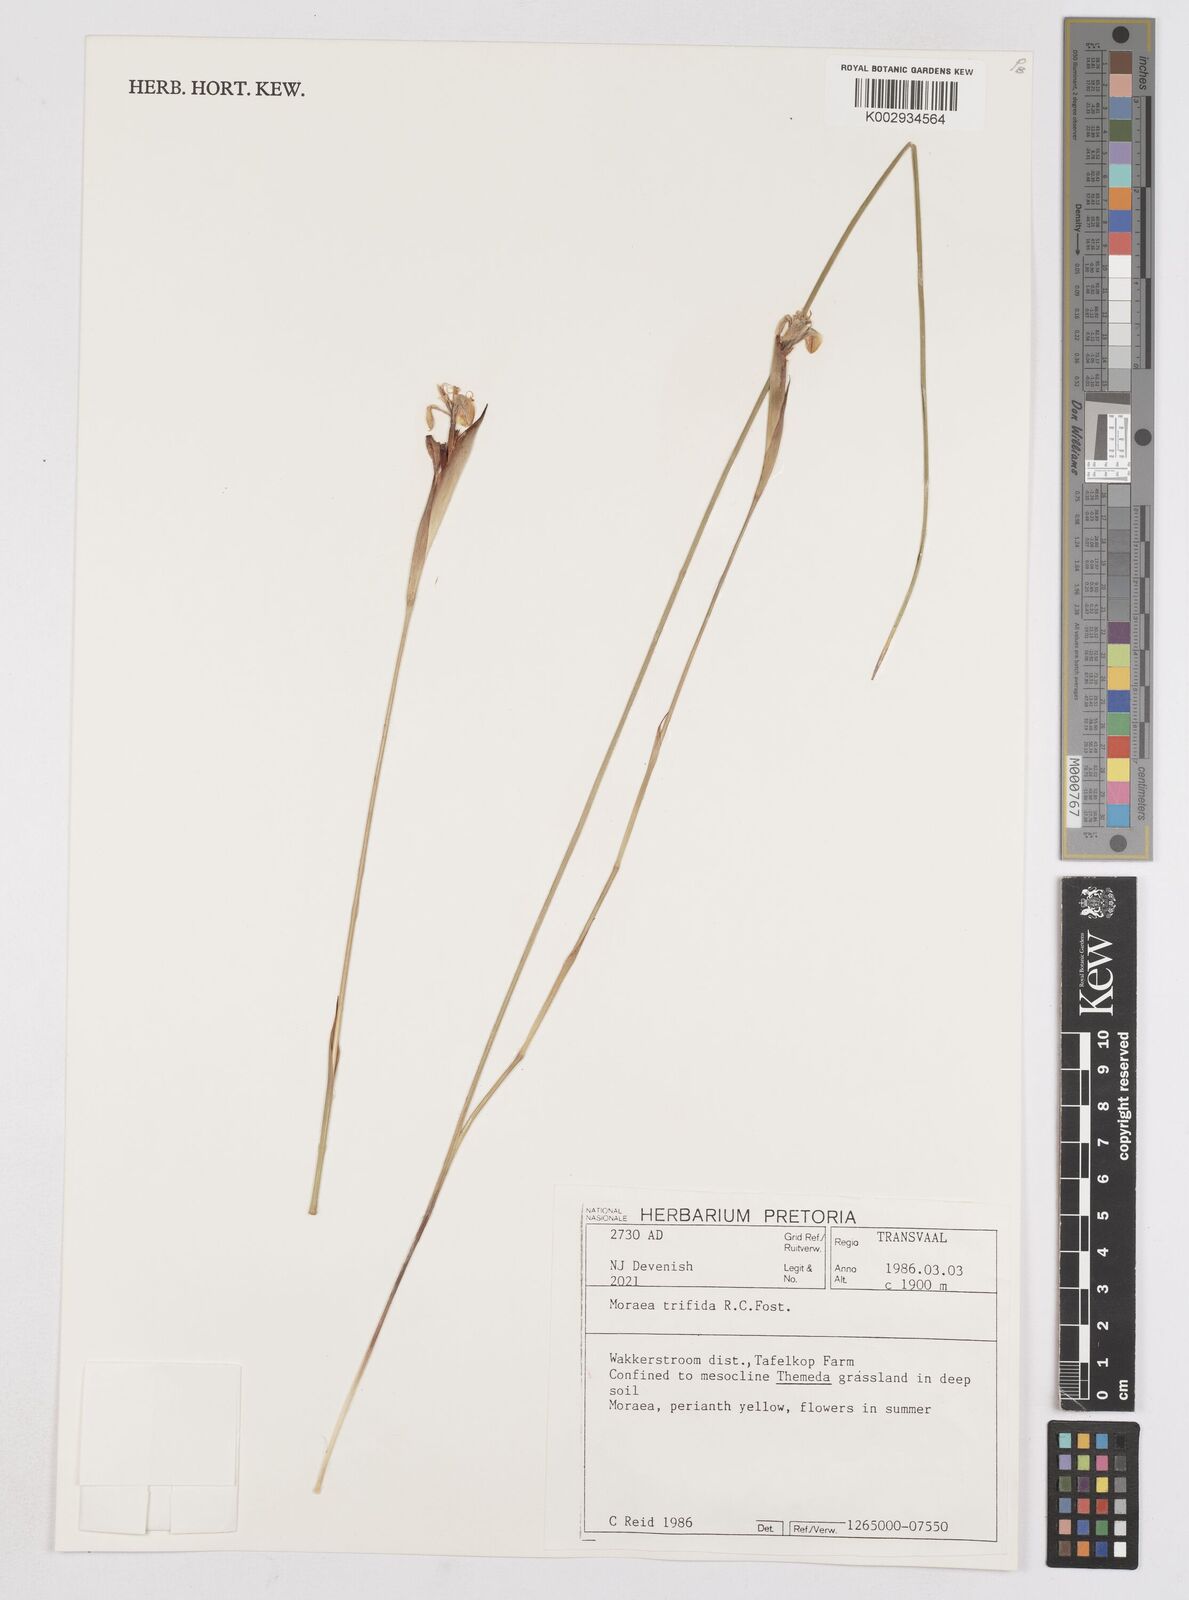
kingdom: Plantae
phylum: Tracheophyta
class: Liliopsida
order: Asparagales
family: Iridaceae
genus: Moraea
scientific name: Moraea trifida
